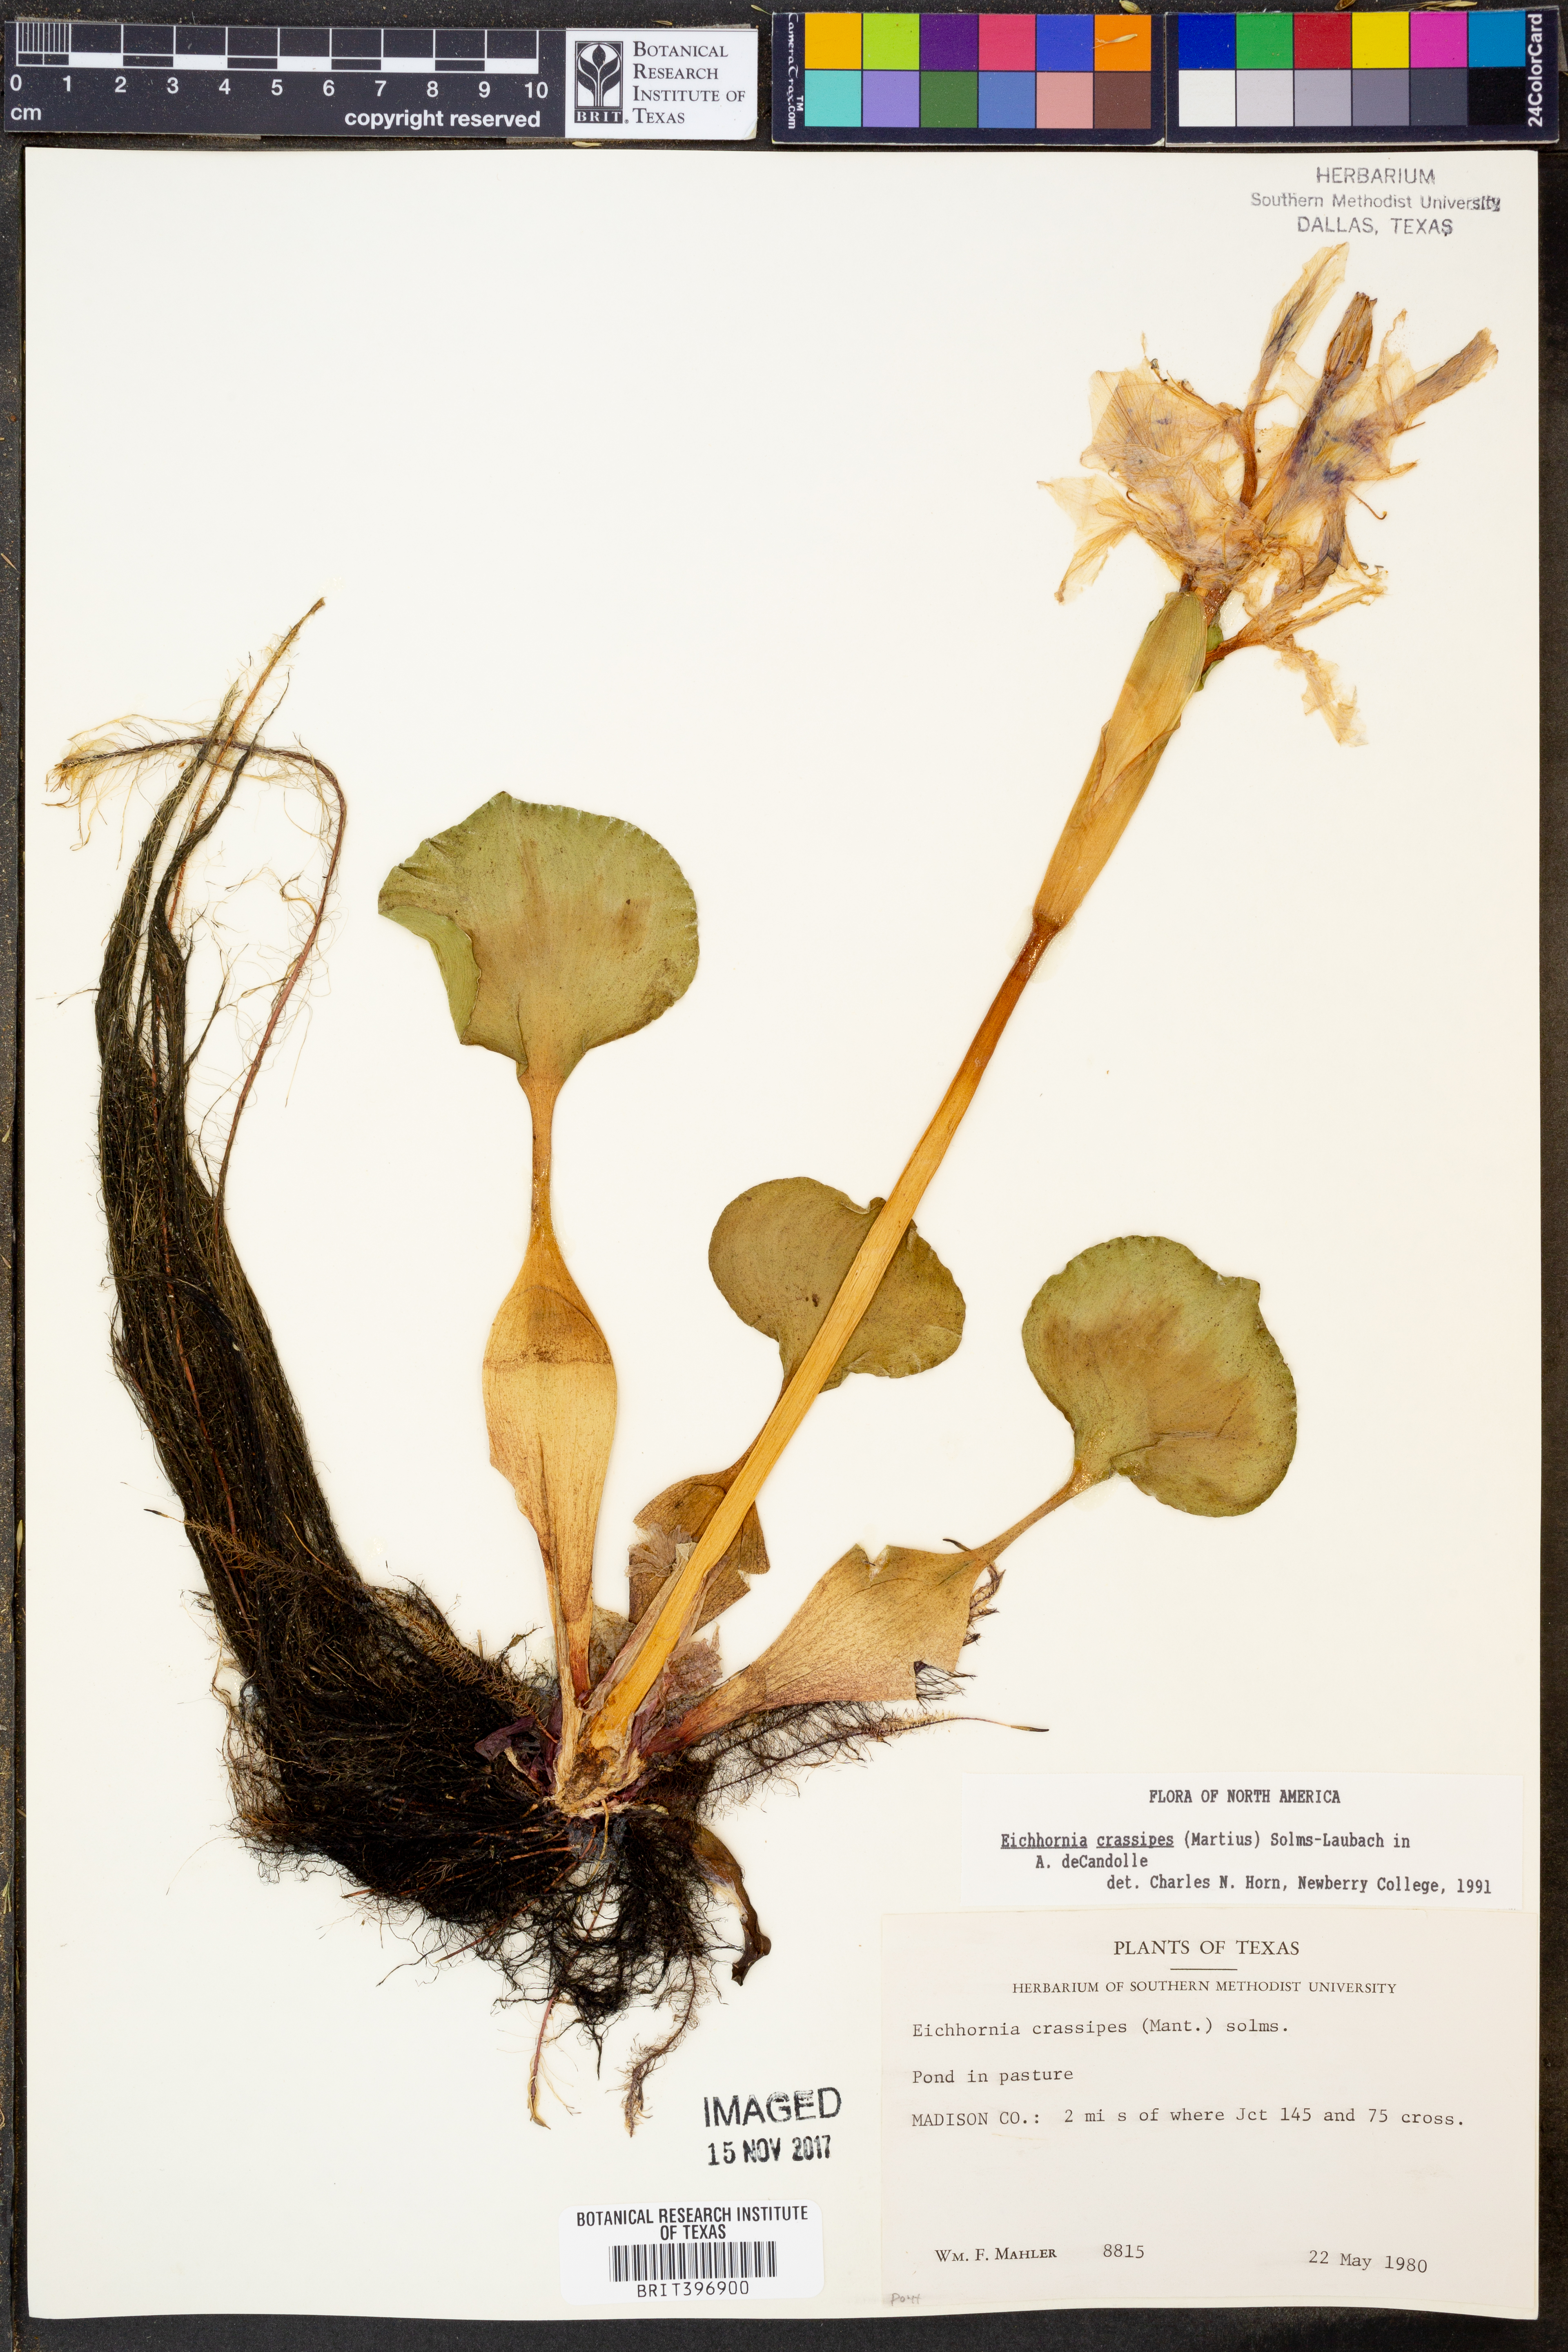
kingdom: Plantae
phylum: Tracheophyta
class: Liliopsida
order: Commelinales
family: Pontederiaceae
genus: Pontederia
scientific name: Pontederia crassipes
